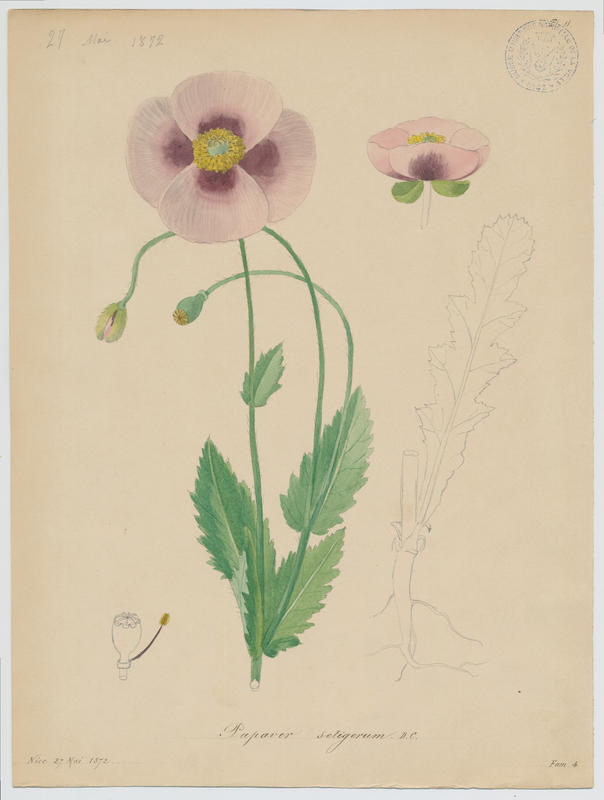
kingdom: Plantae
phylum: Tracheophyta
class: Magnoliopsida
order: Ranunculales
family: Papaveraceae
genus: Papaver
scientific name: Papaver setigerum
